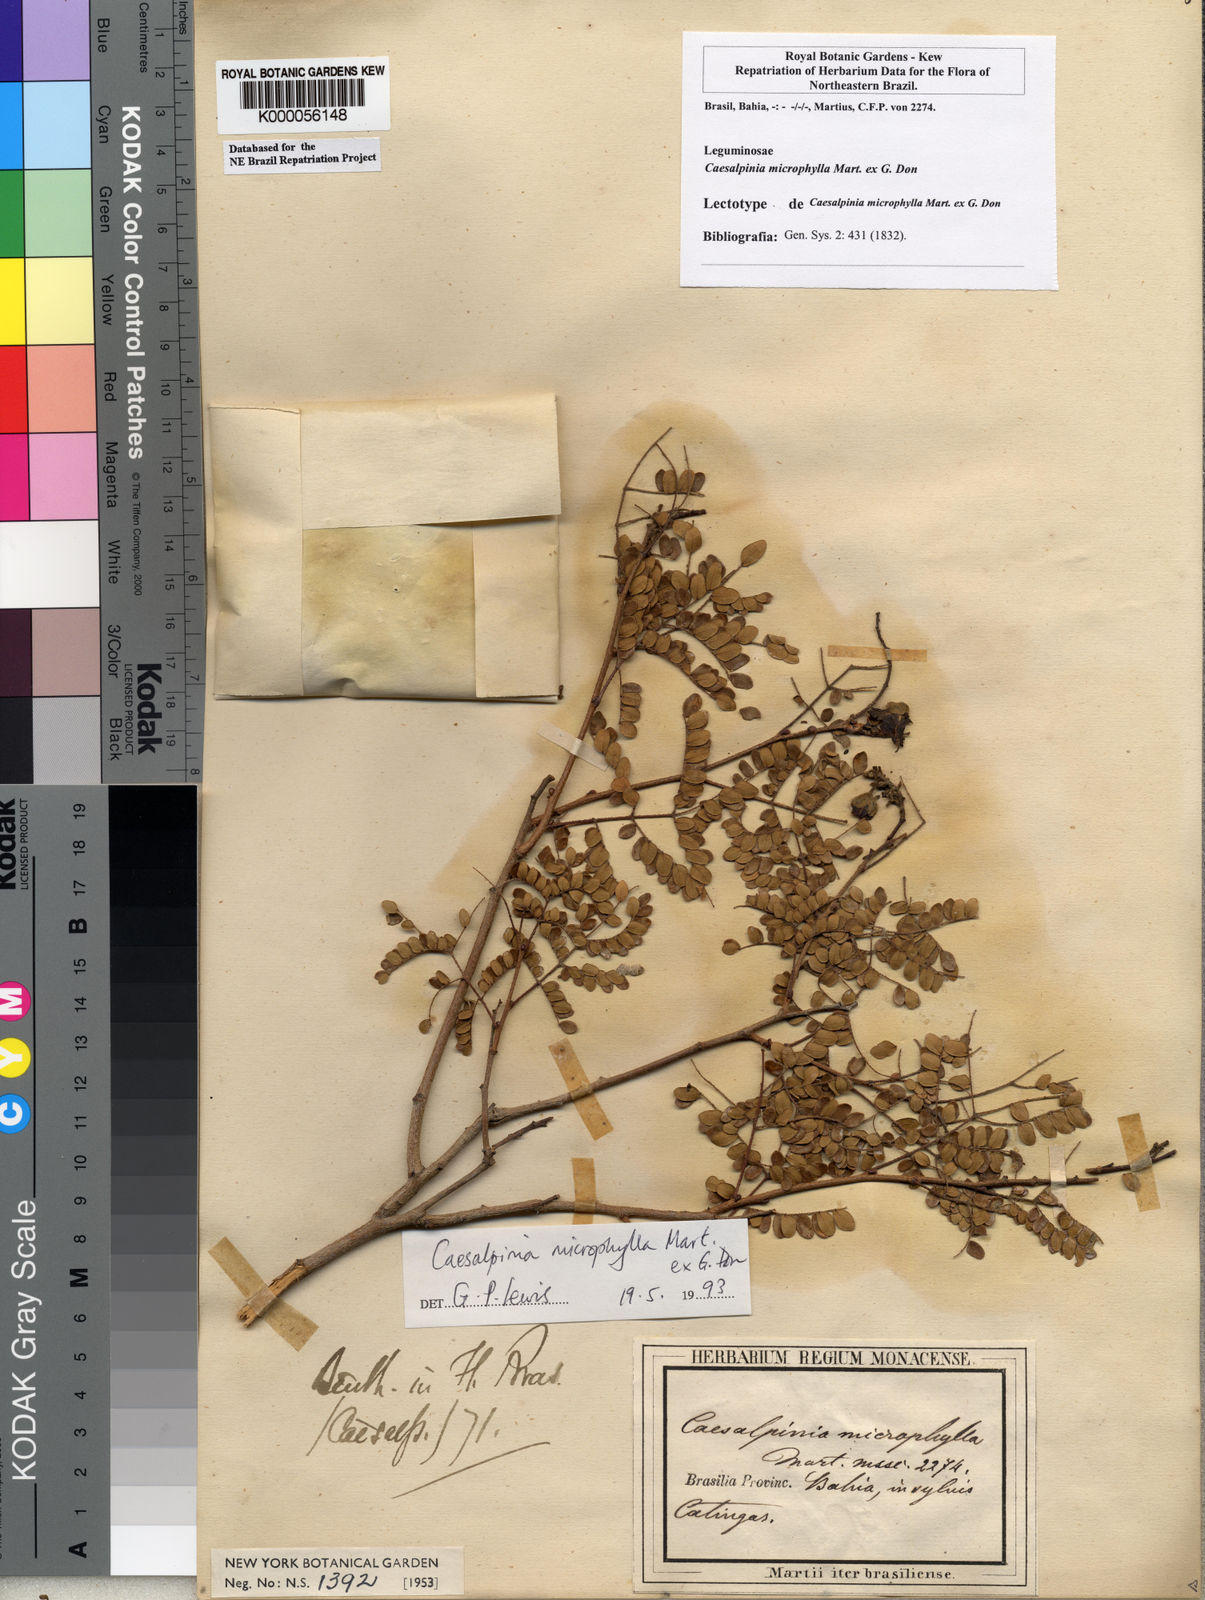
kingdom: Plantae
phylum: Tracheophyta
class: Magnoliopsida
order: Fabales
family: Fabaceae
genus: Cenostigma
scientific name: Cenostigma microphyllum
